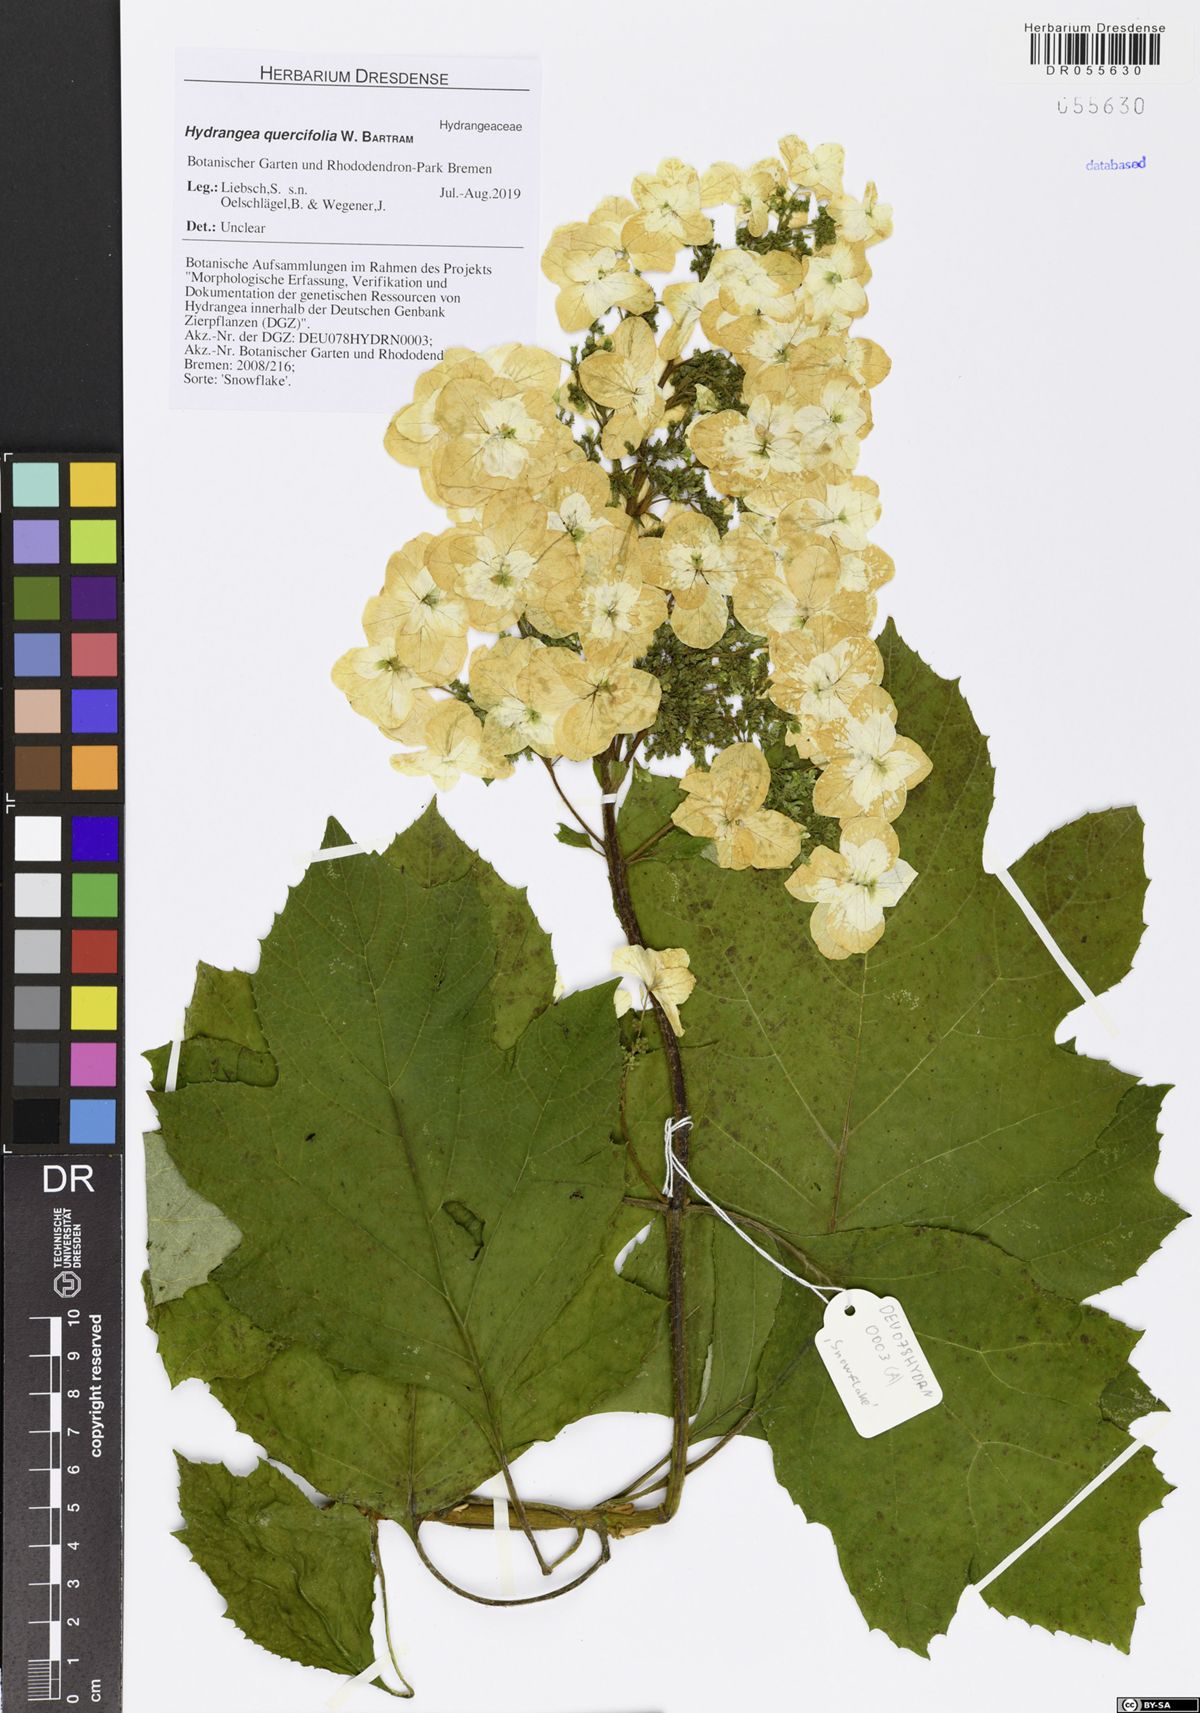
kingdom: Plantae
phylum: Tracheophyta
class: Magnoliopsida
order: Cornales
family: Hydrangeaceae
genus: Hydrangea
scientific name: Hydrangea quercifolia
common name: Oak-leaf hydrangea
